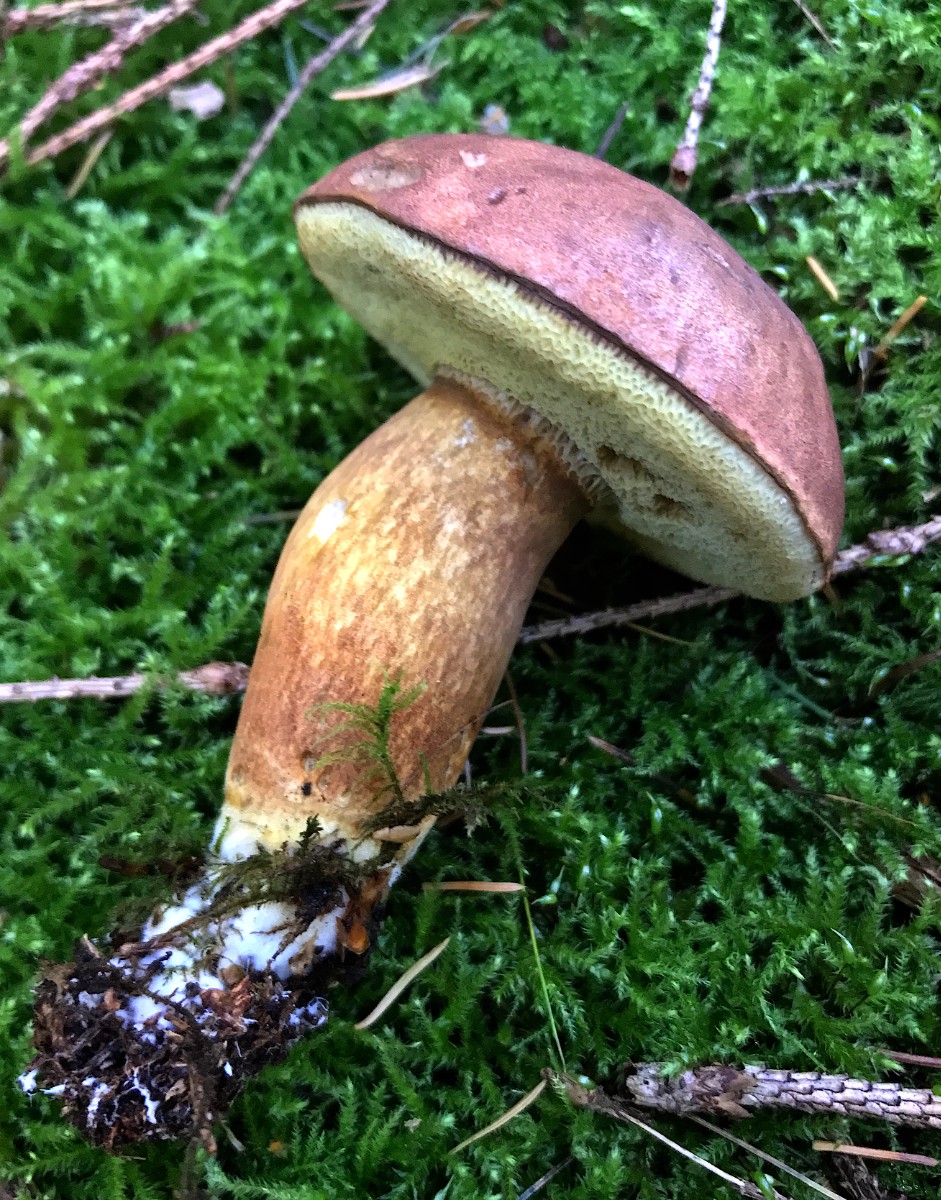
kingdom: Fungi
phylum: Basidiomycota
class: Agaricomycetes
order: Boletales
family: Boletaceae
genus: Imleria
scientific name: Imleria badia
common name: brunstokket rørhat
